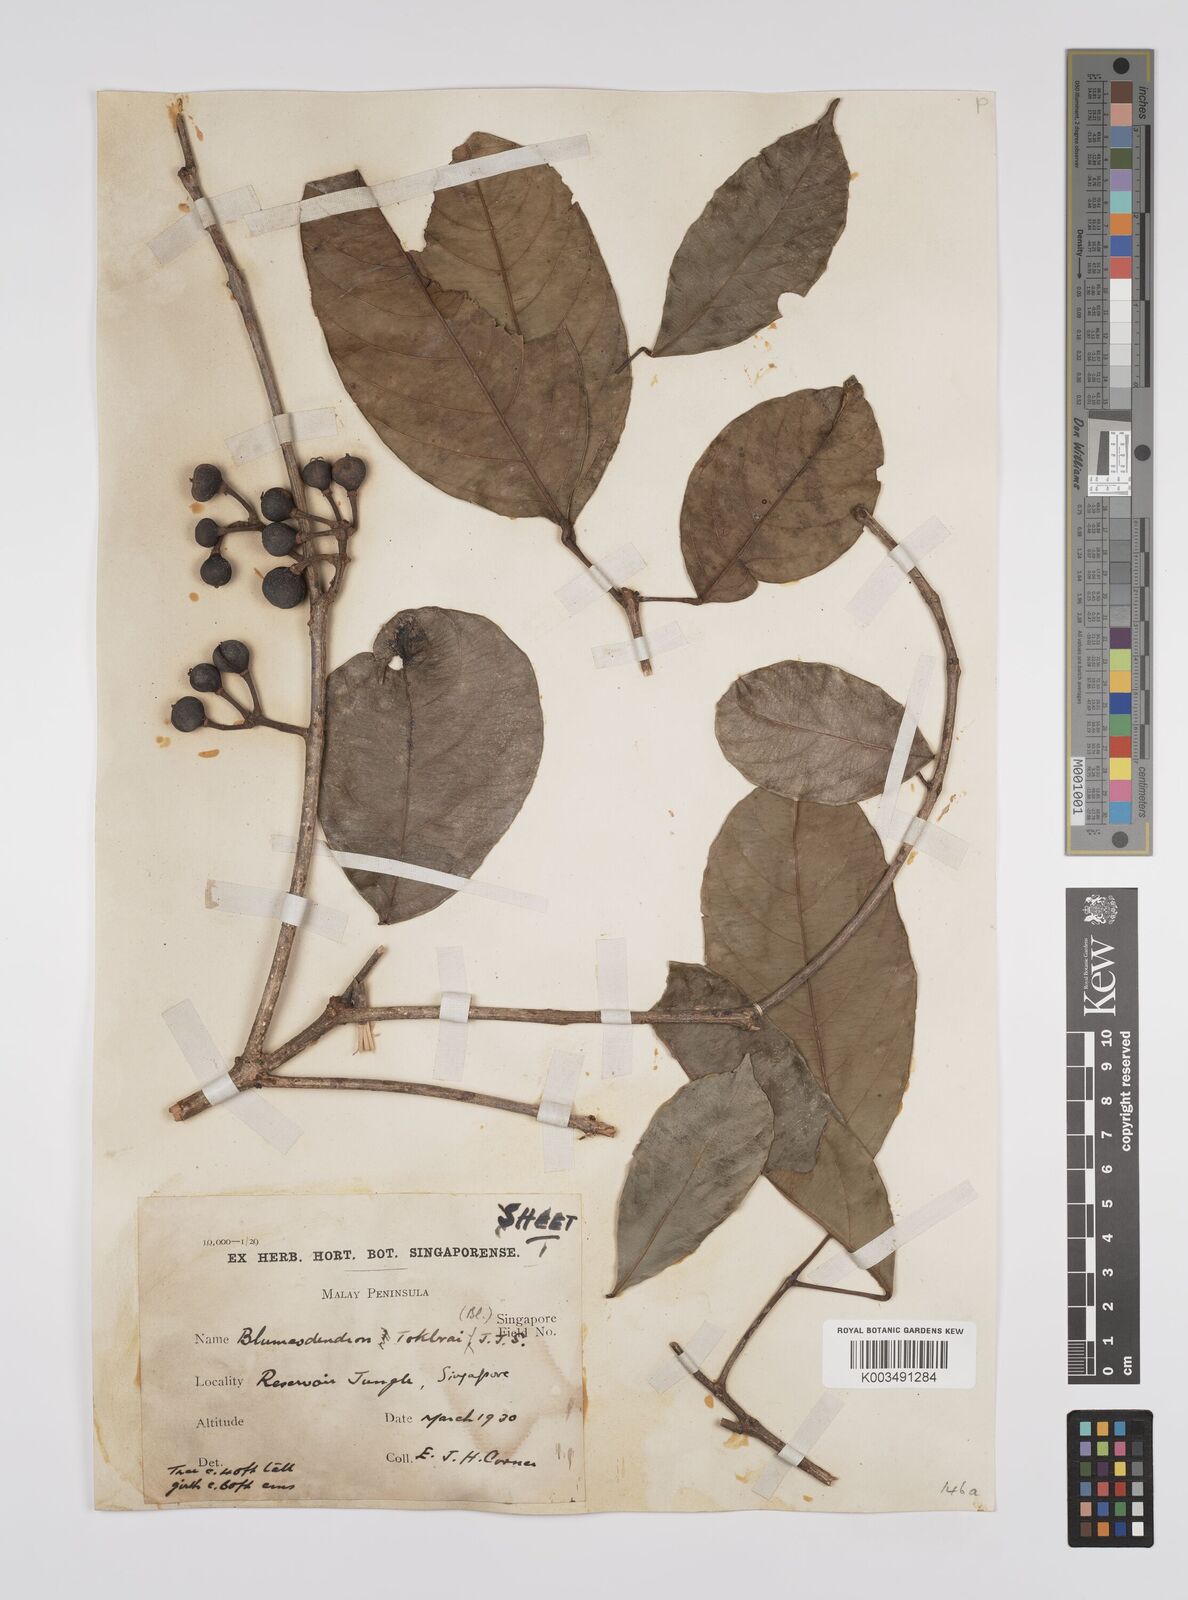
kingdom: Plantae
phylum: Tracheophyta
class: Magnoliopsida
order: Malpighiales
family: Euphorbiaceae
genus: Blumeodendron
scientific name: Blumeodendron tokbrai
